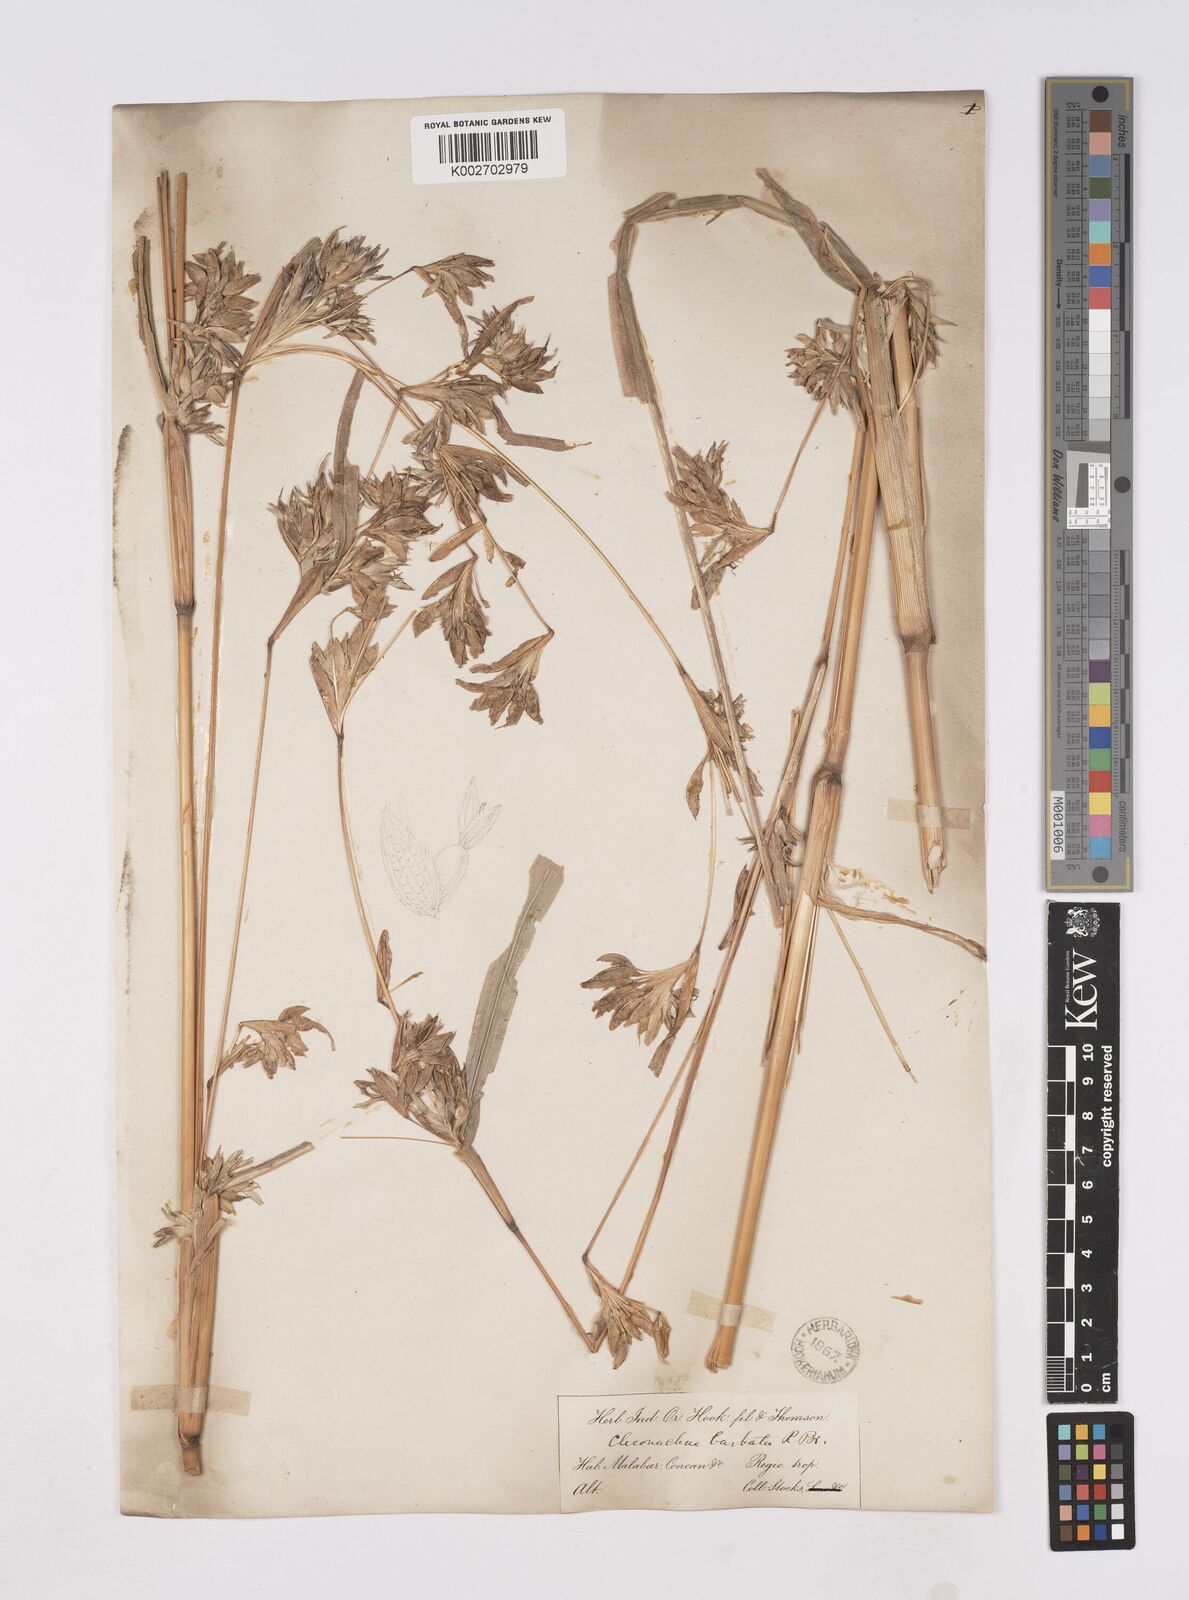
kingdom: Plantae
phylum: Tracheophyta
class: Liliopsida
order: Poales
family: Poaceae
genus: Polytoca
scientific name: Polytoca gigantea
